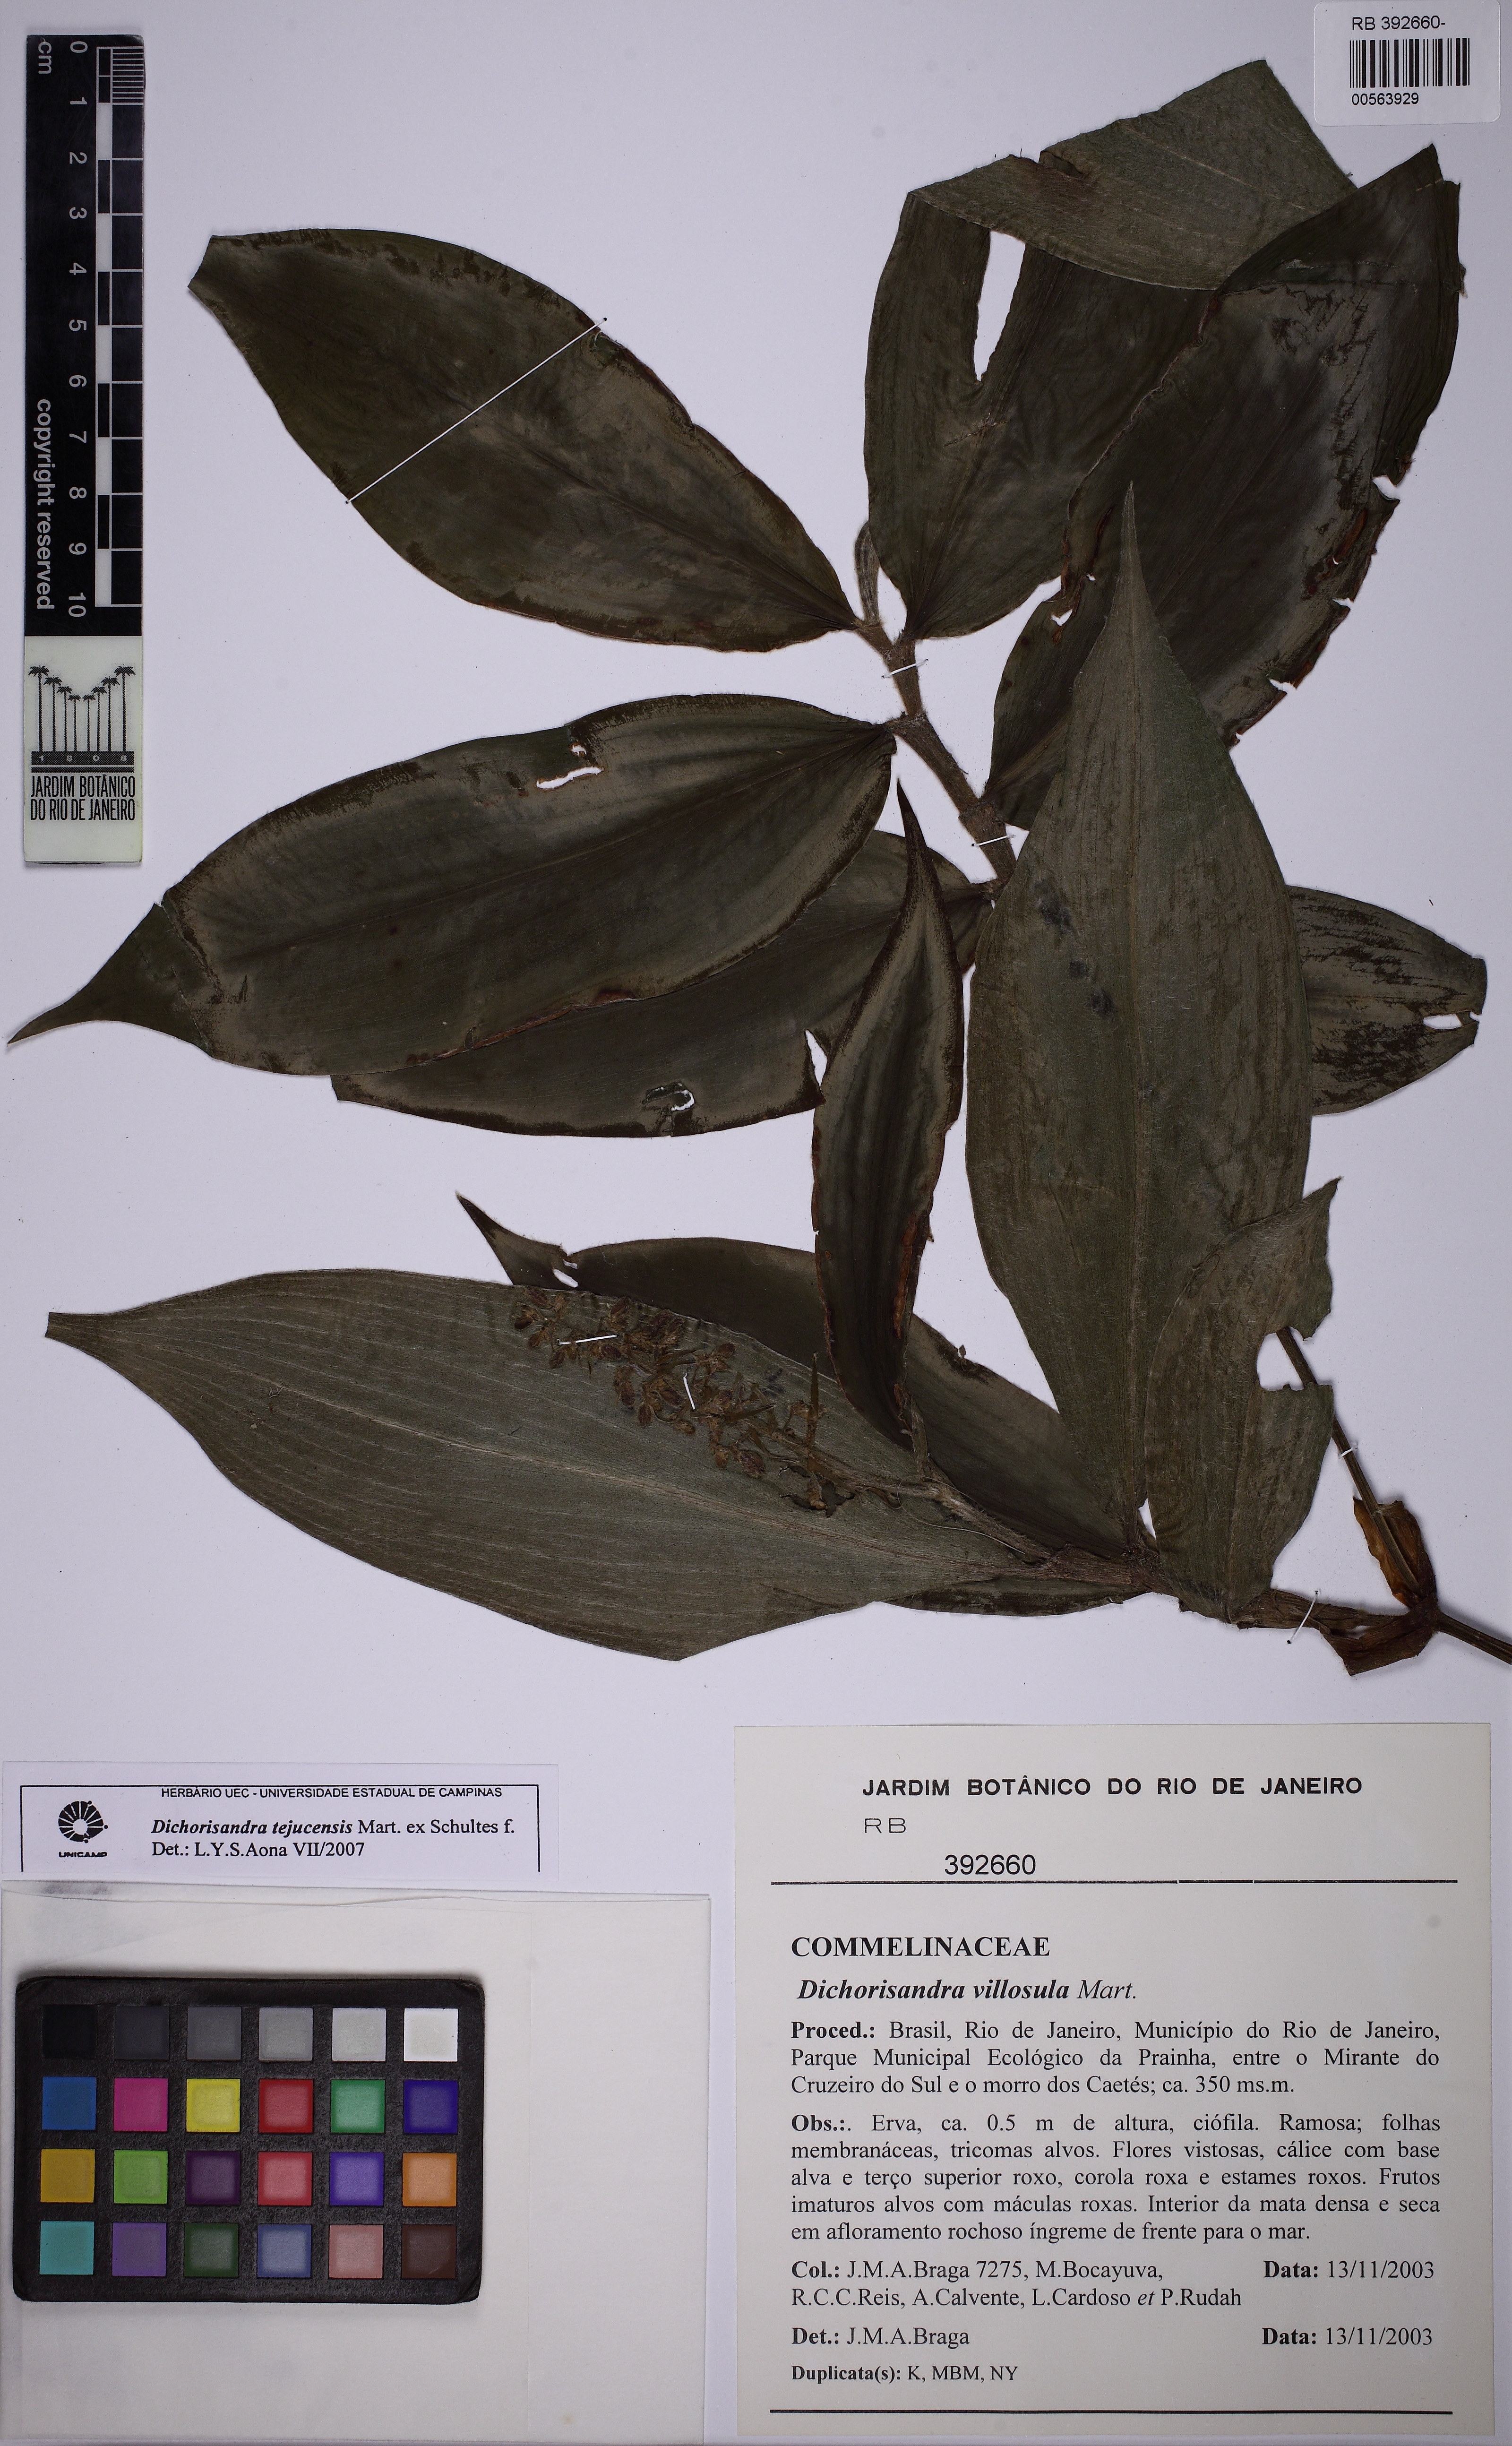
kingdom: Plantae
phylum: Tracheophyta
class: Liliopsida
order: Commelinales
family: Commelinaceae
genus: Dichorisandra
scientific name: Dichorisandra tejucensis
